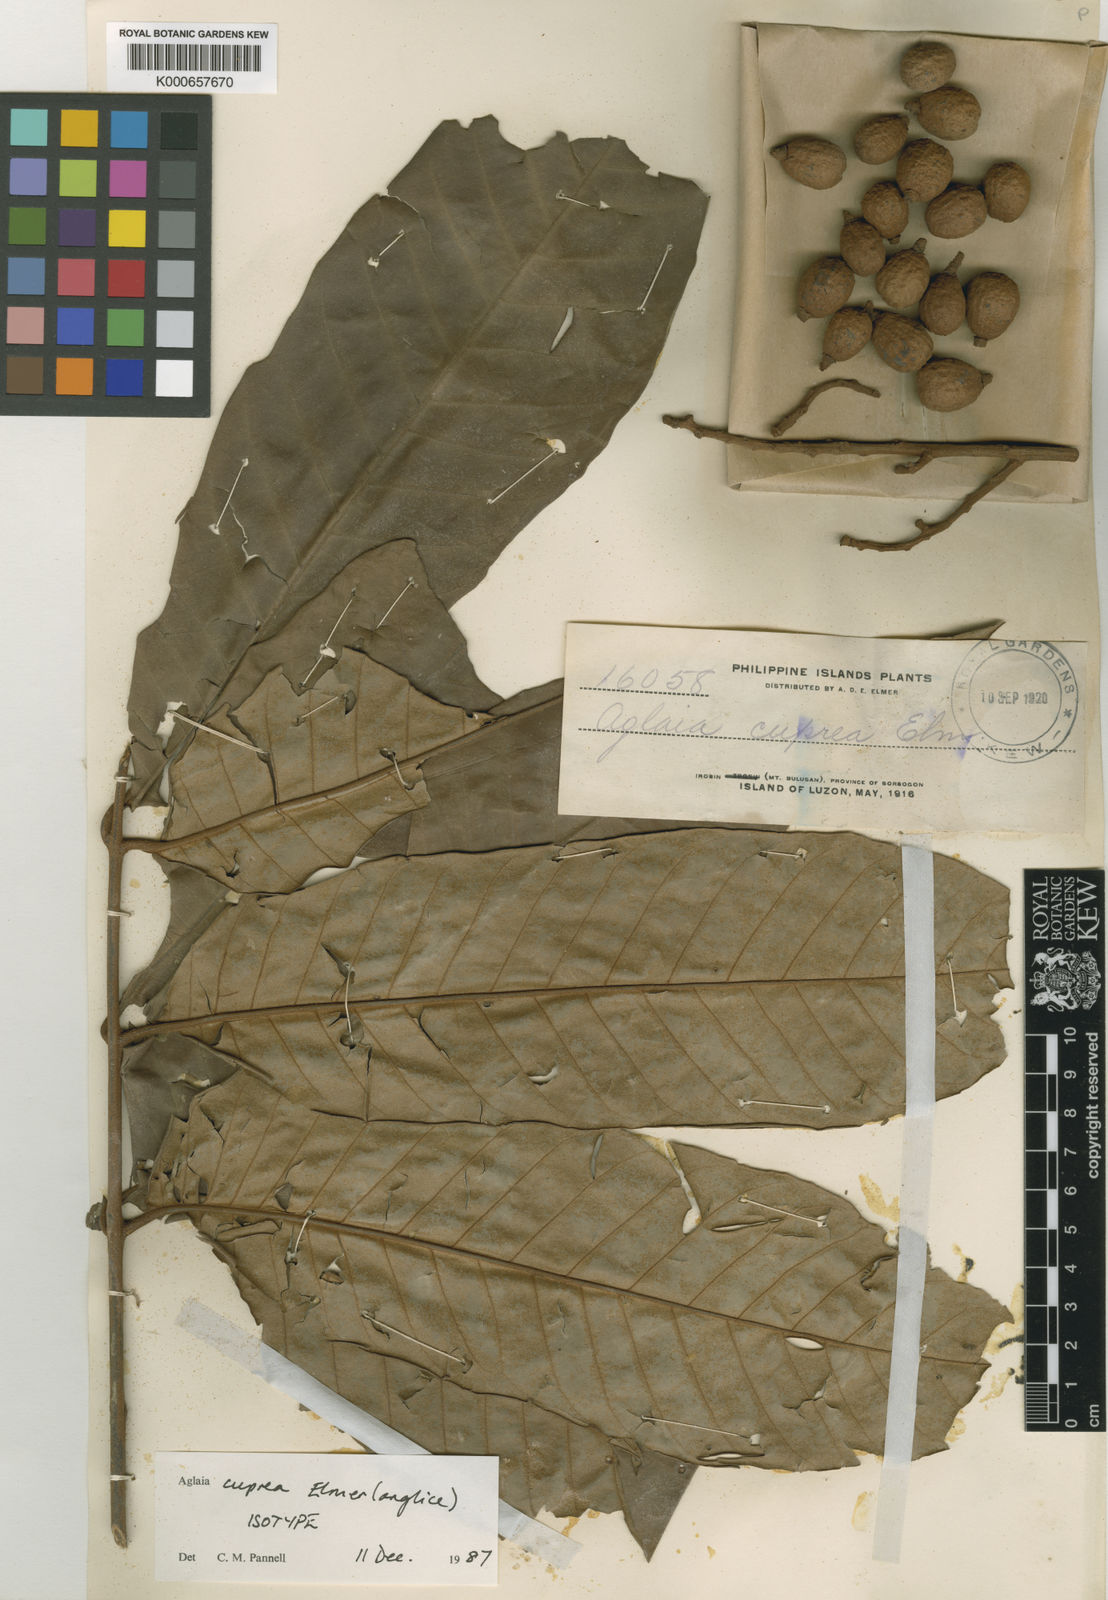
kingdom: Plantae
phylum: Tracheophyta
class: Magnoliopsida
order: Sapindales
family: Meliaceae
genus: Aglaia
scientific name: Aglaia squamulosa
